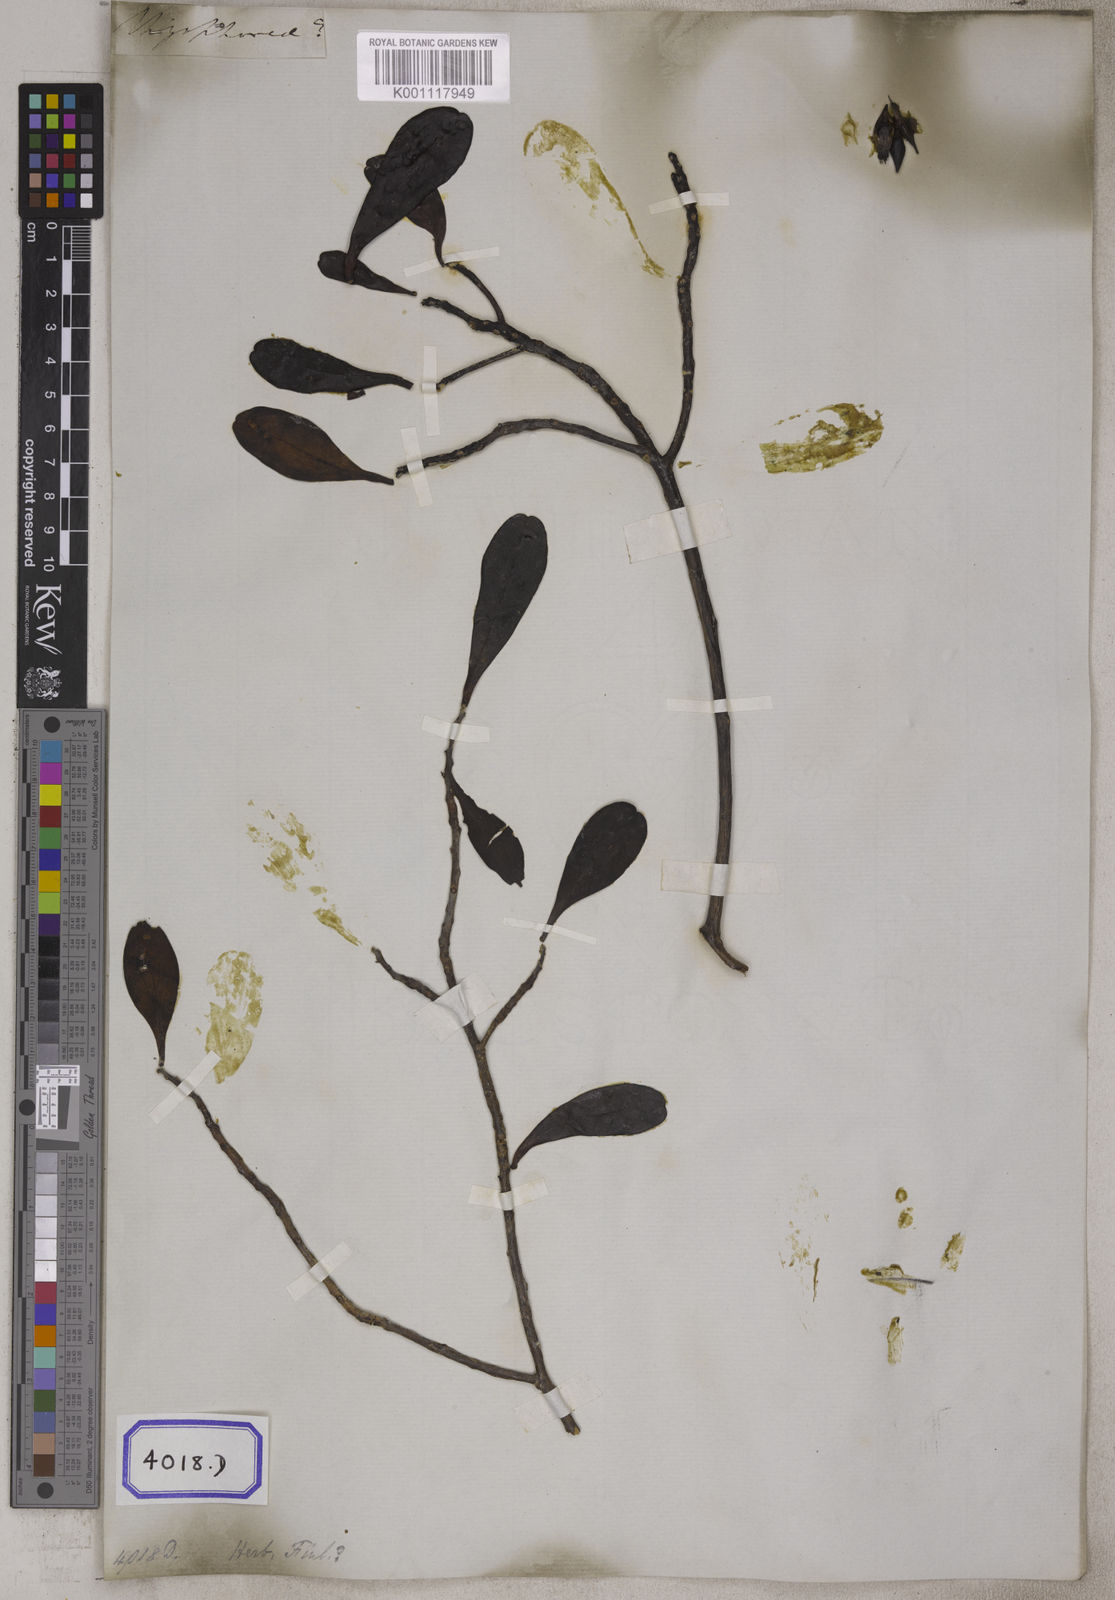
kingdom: Plantae
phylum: Tracheophyta
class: Magnoliopsida
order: Myrtales
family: Combretaceae
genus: Lumnitzera
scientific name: Lumnitzera littorea
